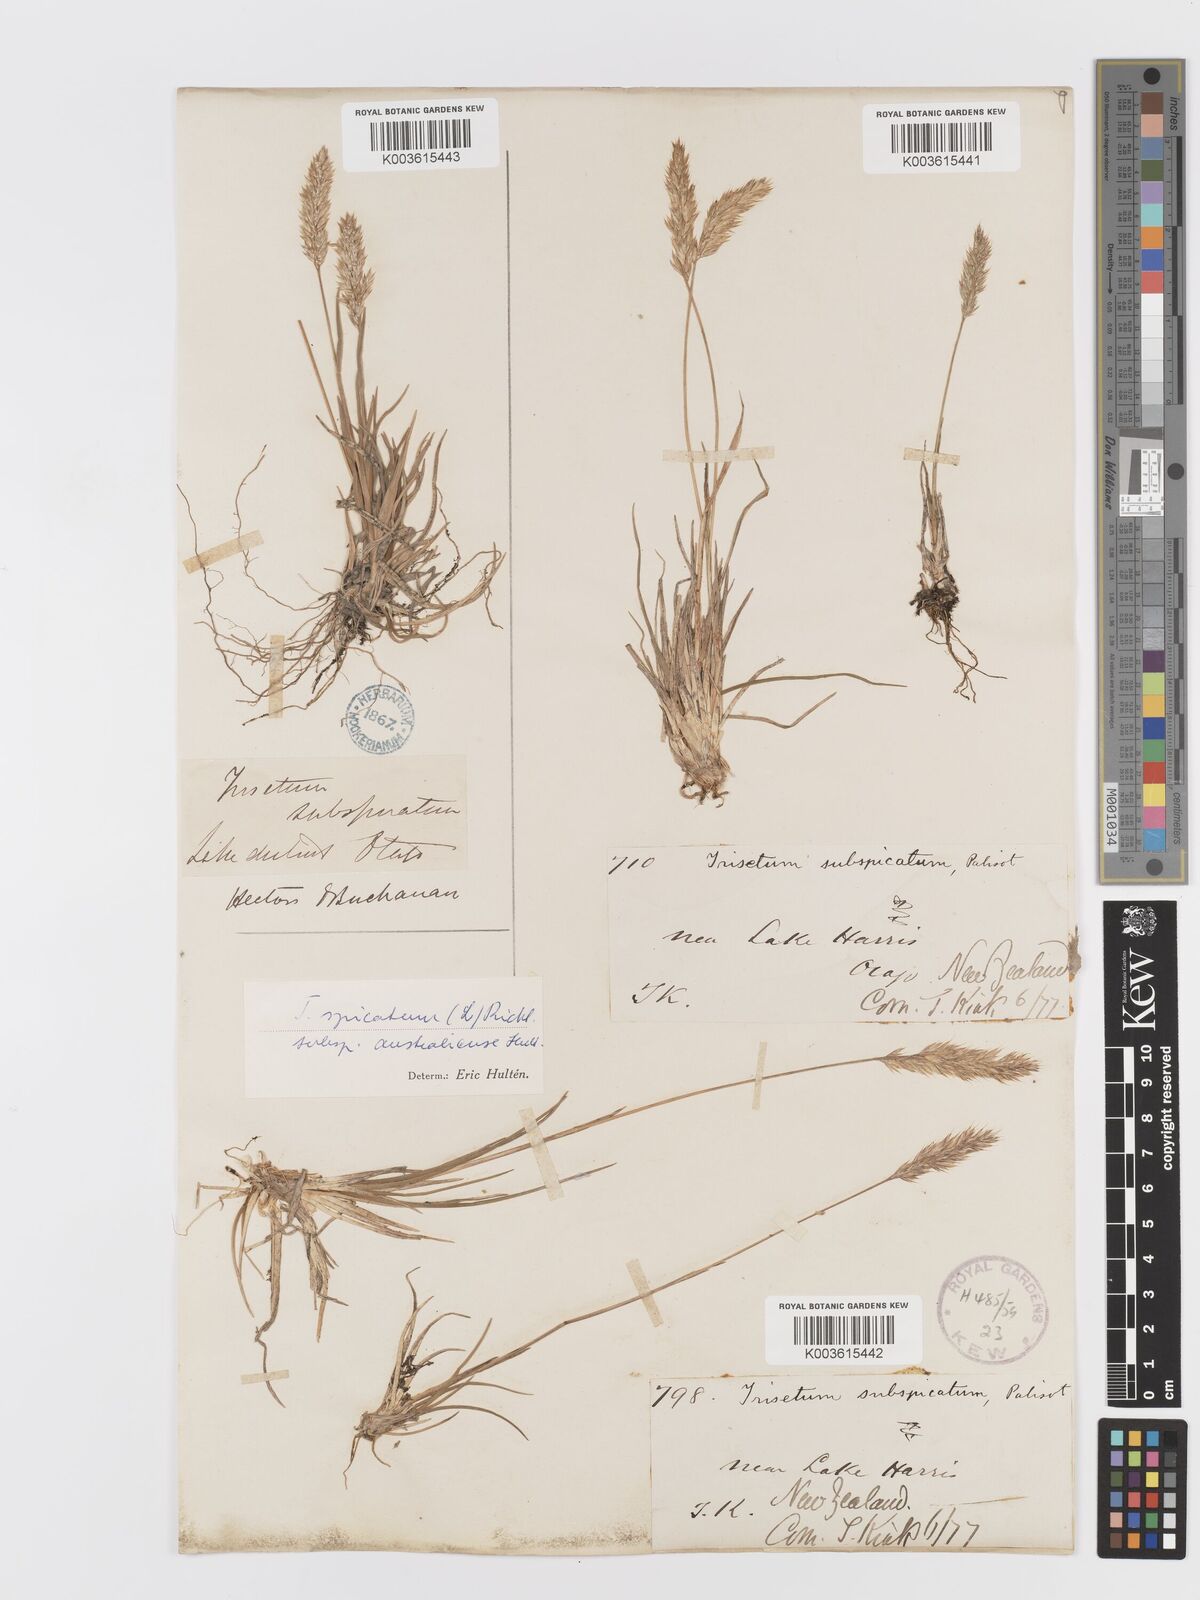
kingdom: Plantae
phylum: Tracheophyta
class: Liliopsida
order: Poales
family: Poaceae
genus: Koeleria
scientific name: Koeleria spicata
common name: Mountain trisetum
